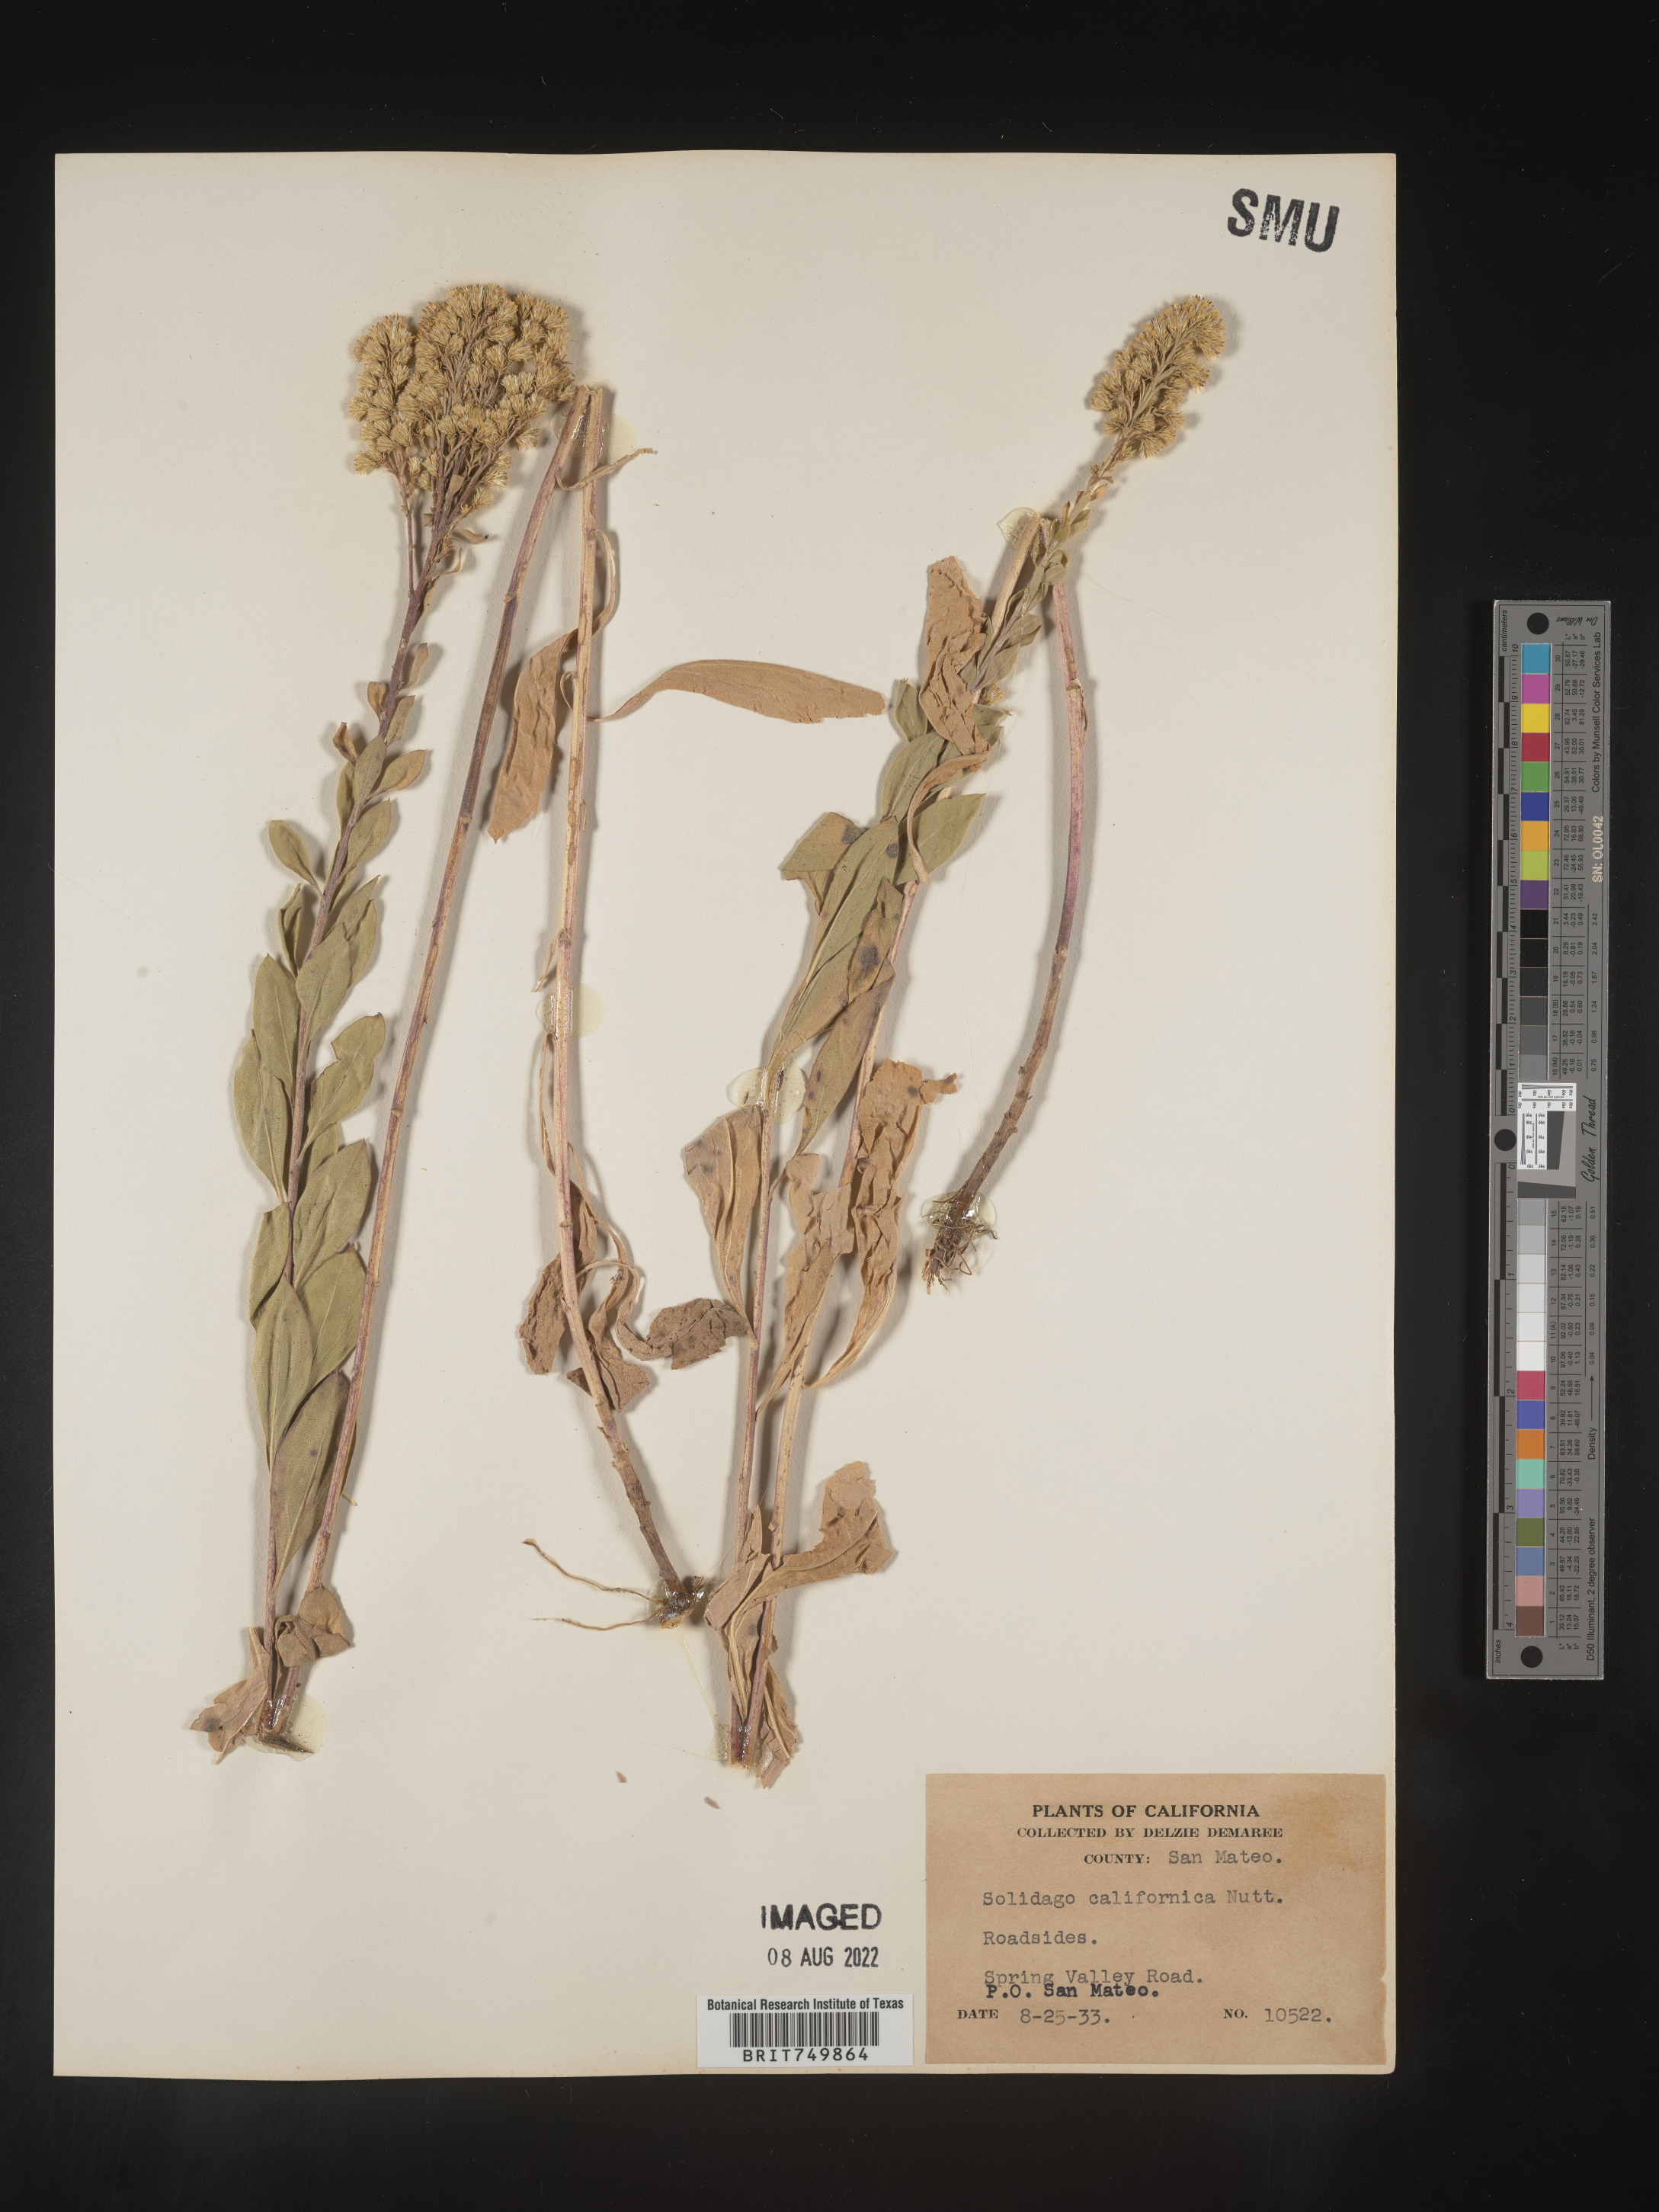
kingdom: Plantae
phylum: Tracheophyta
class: Magnoliopsida
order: Asterales
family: Asteraceae
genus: Solidago
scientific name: Solidago velutina
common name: Three-nerve goldenrod
